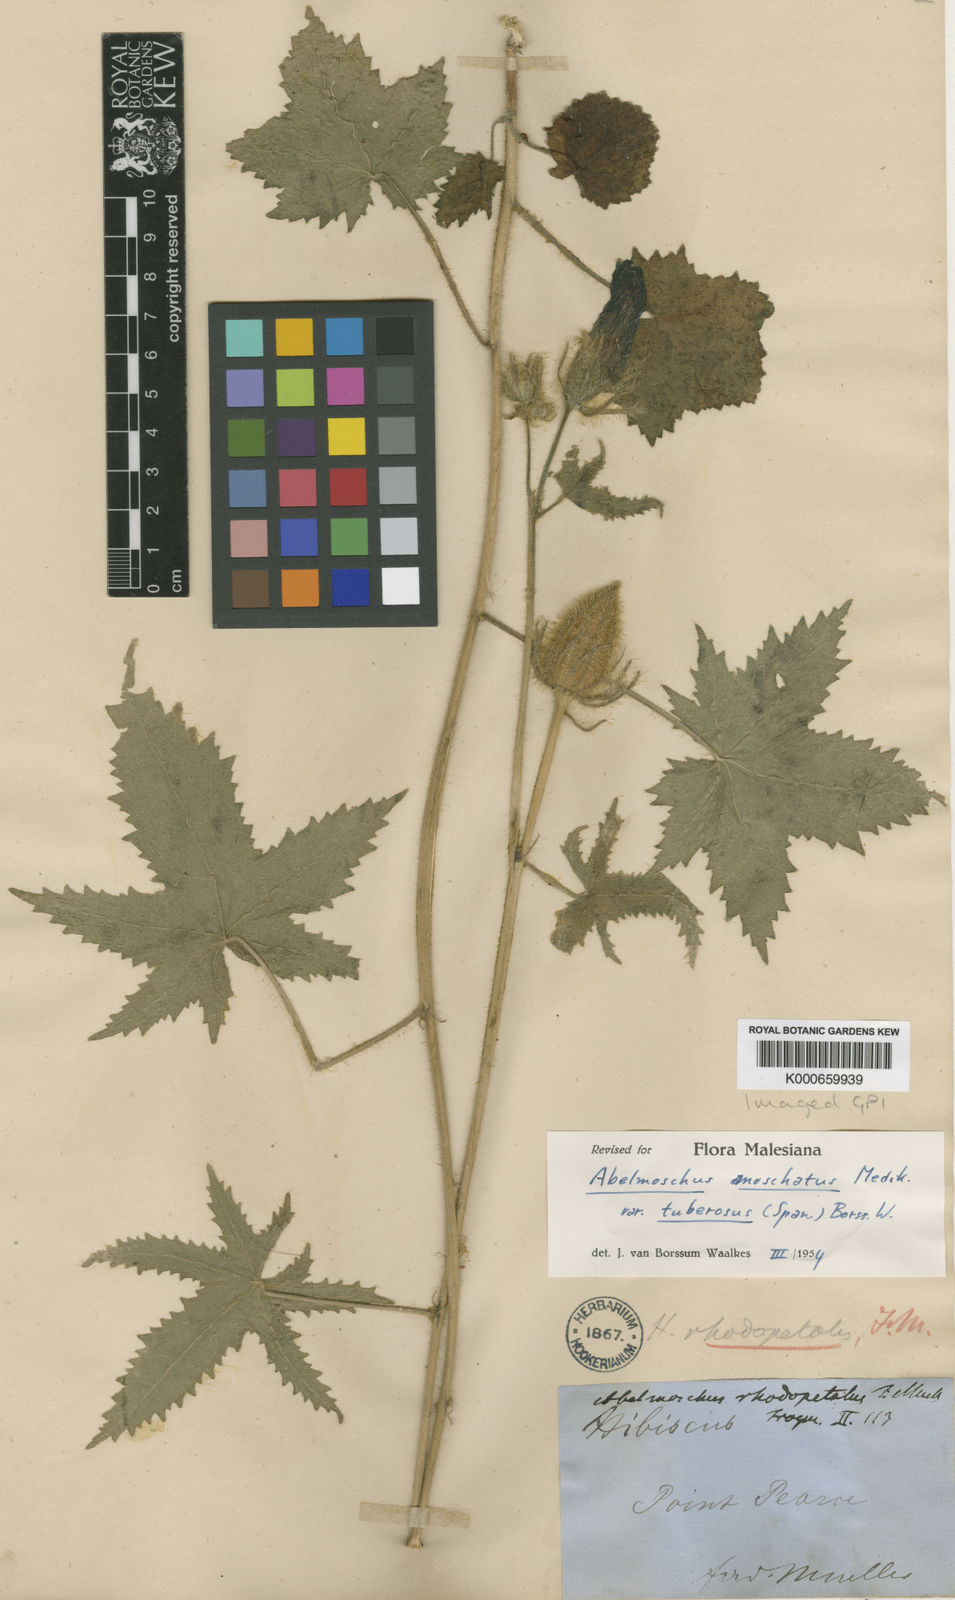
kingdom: Plantae
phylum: Tracheophyta
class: Magnoliopsida
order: Malvales
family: Malvaceae
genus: Abelmoschus
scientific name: Abelmoschus sagittifolius
